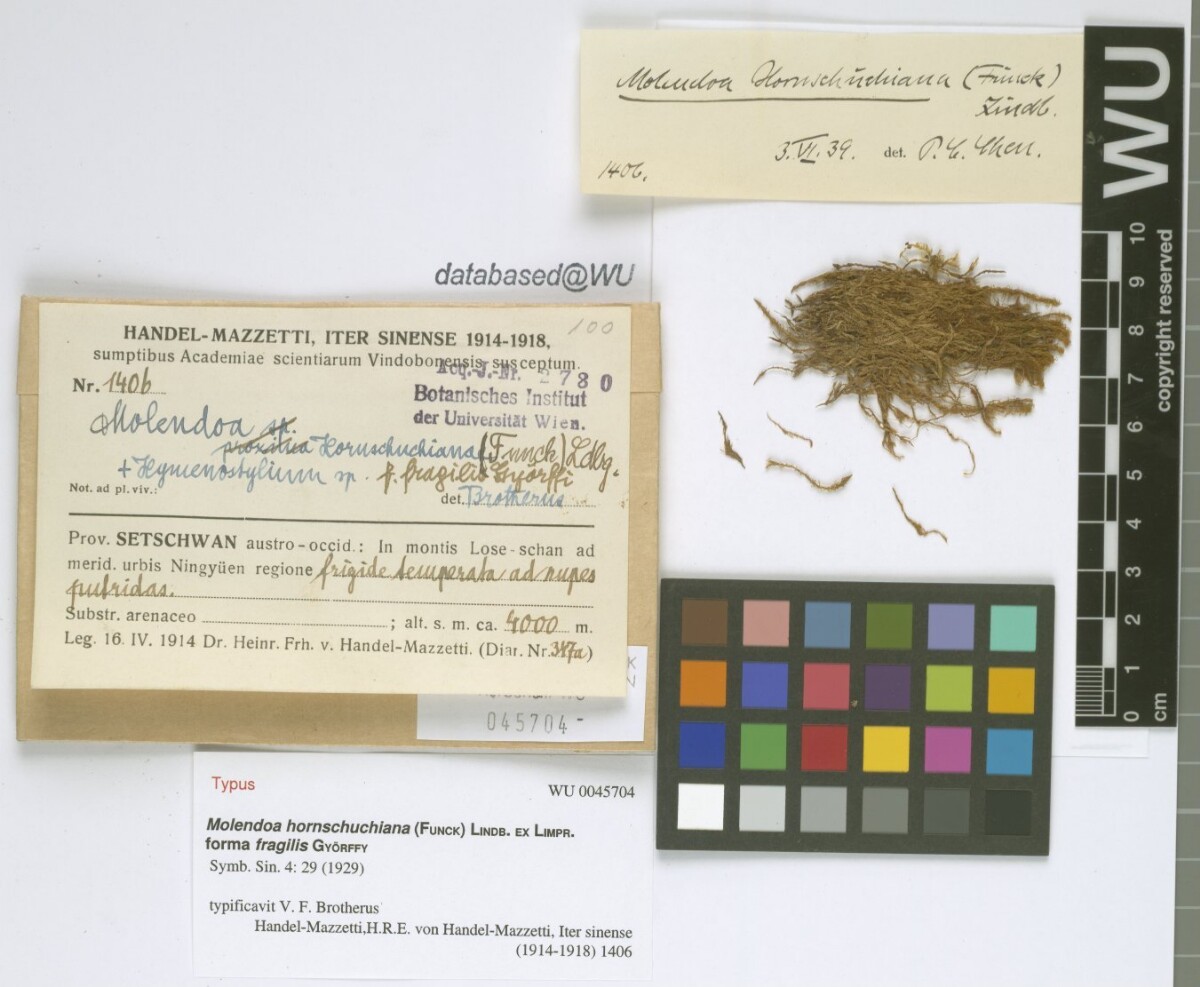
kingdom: Plantae
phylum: Bryophyta
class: Bryopsida
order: Pottiales
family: Pottiaceae
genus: Molendoa
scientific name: Molendoa hornschuchiana
